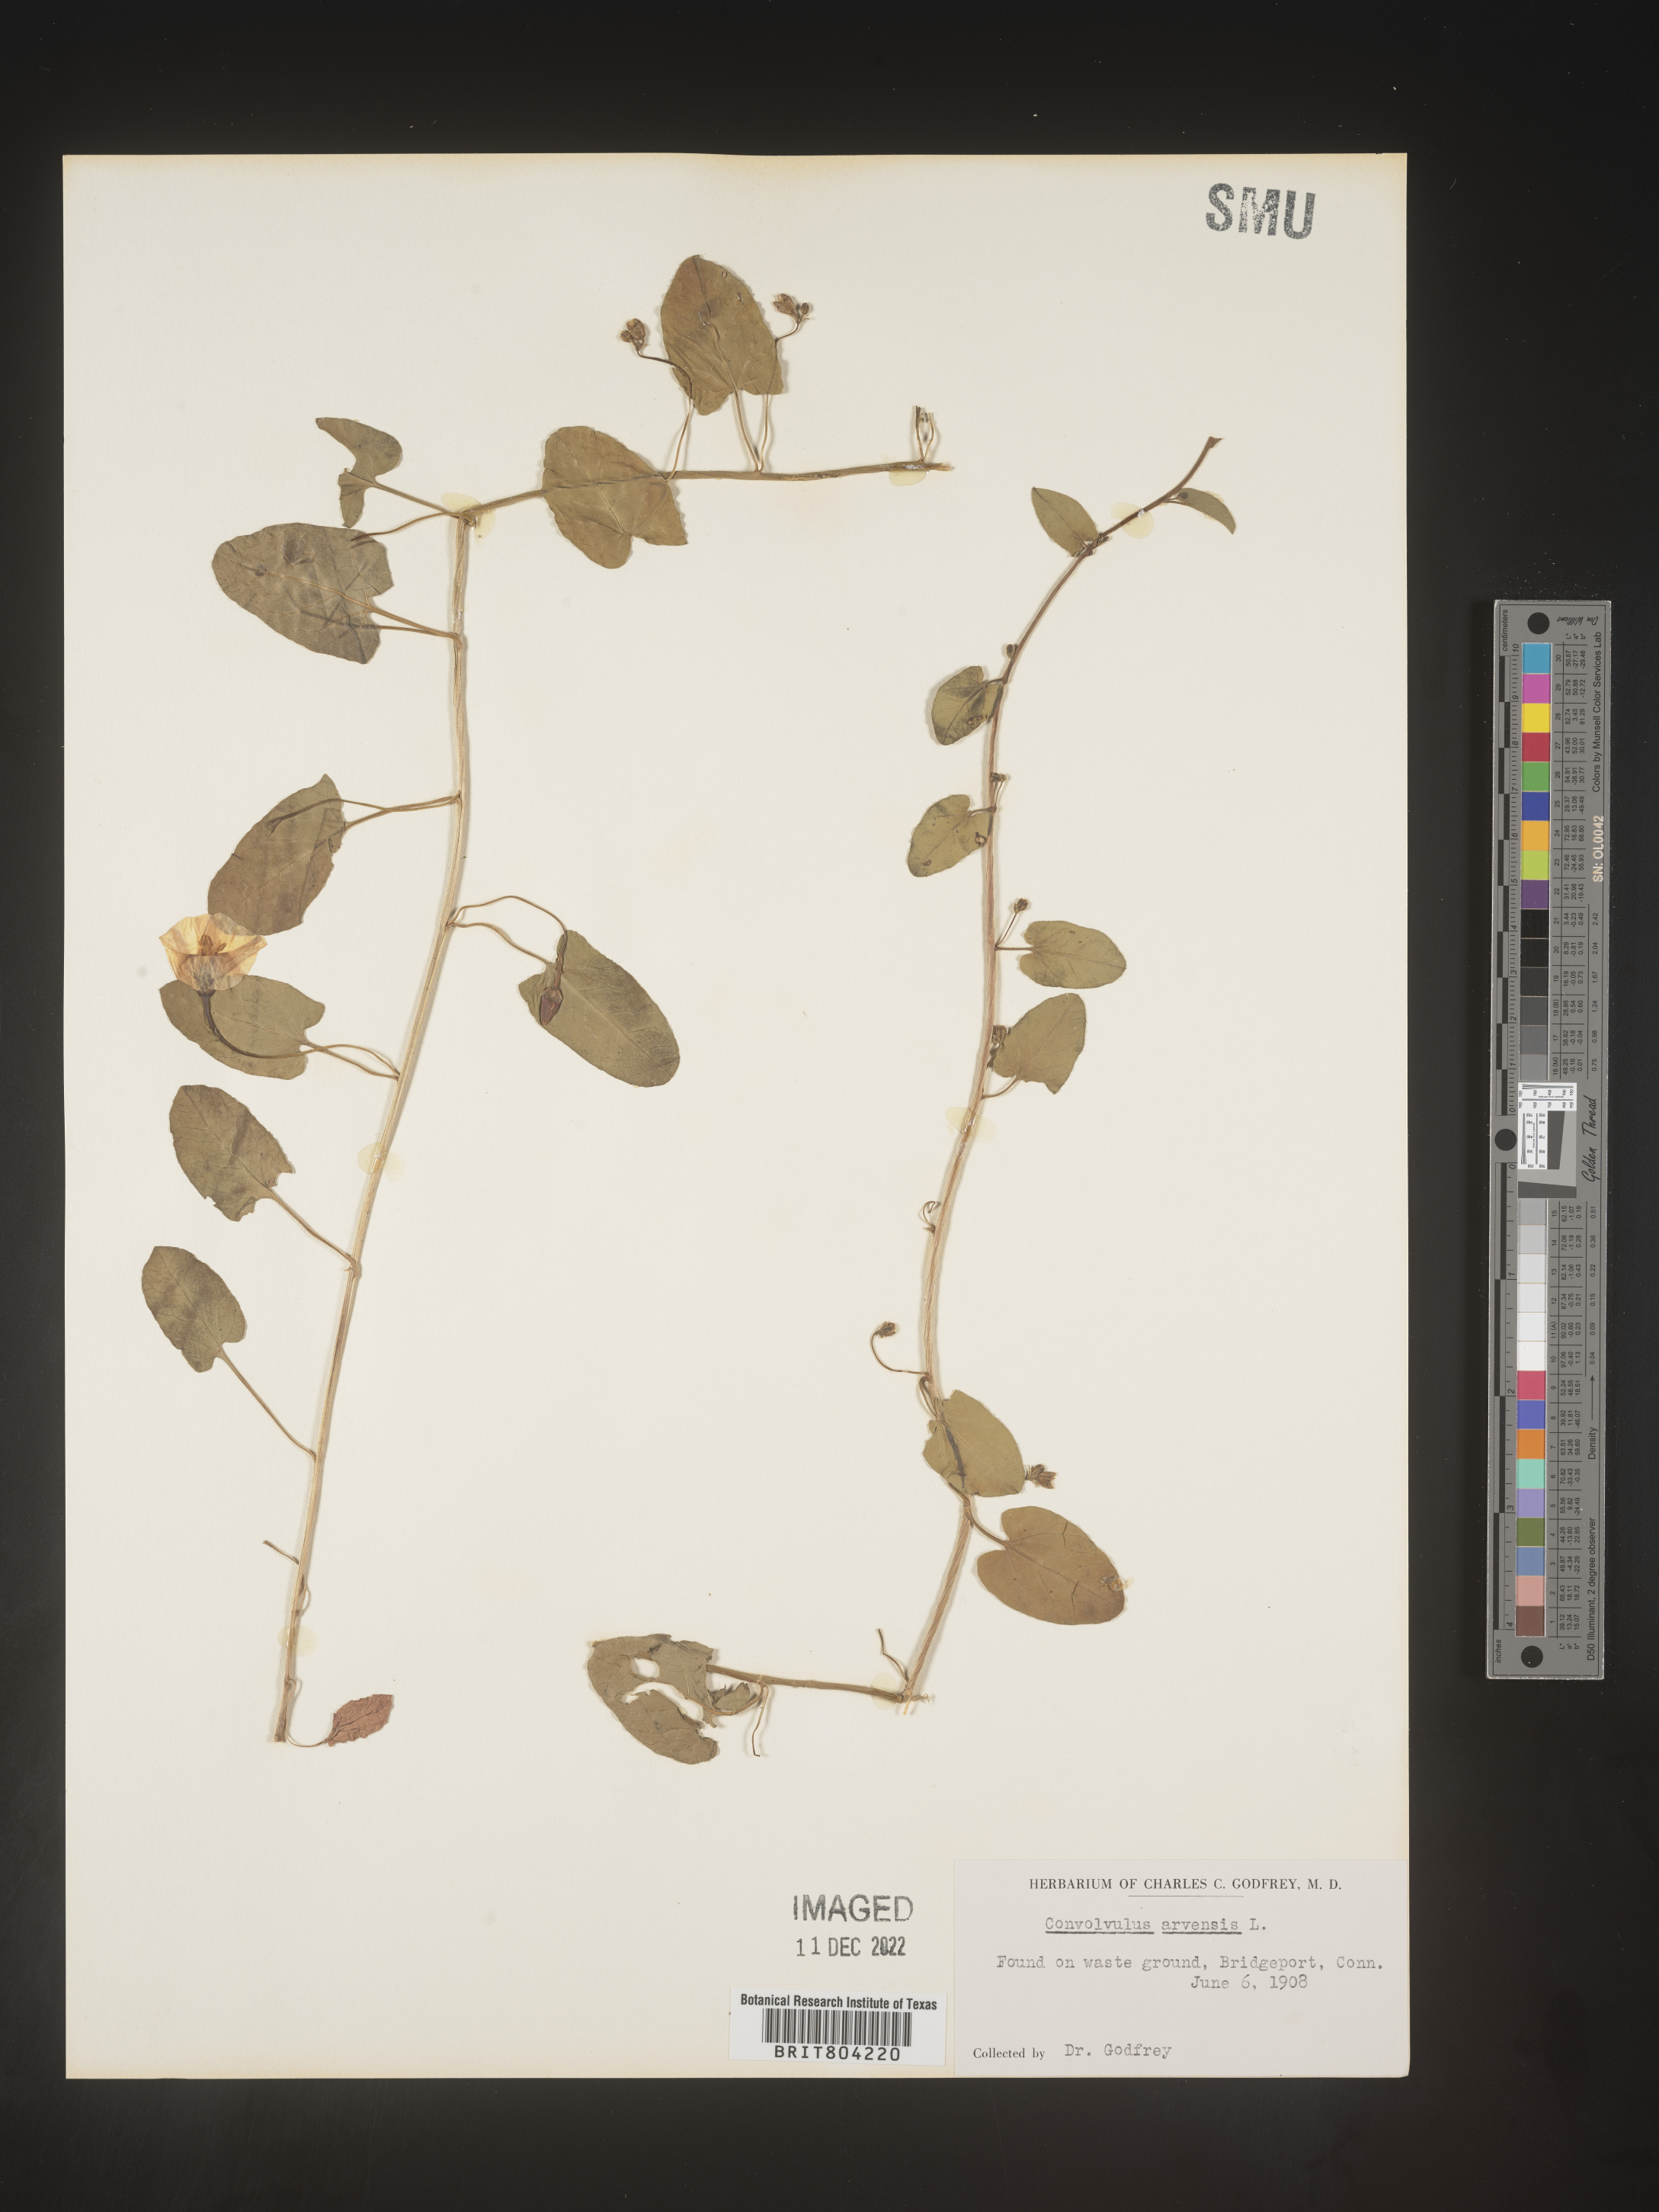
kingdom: Plantae
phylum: Tracheophyta
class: Magnoliopsida
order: Solanales
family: Convolvulaceae
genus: Convolvulus
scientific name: Convolvulus arvensis
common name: Field bindweed
